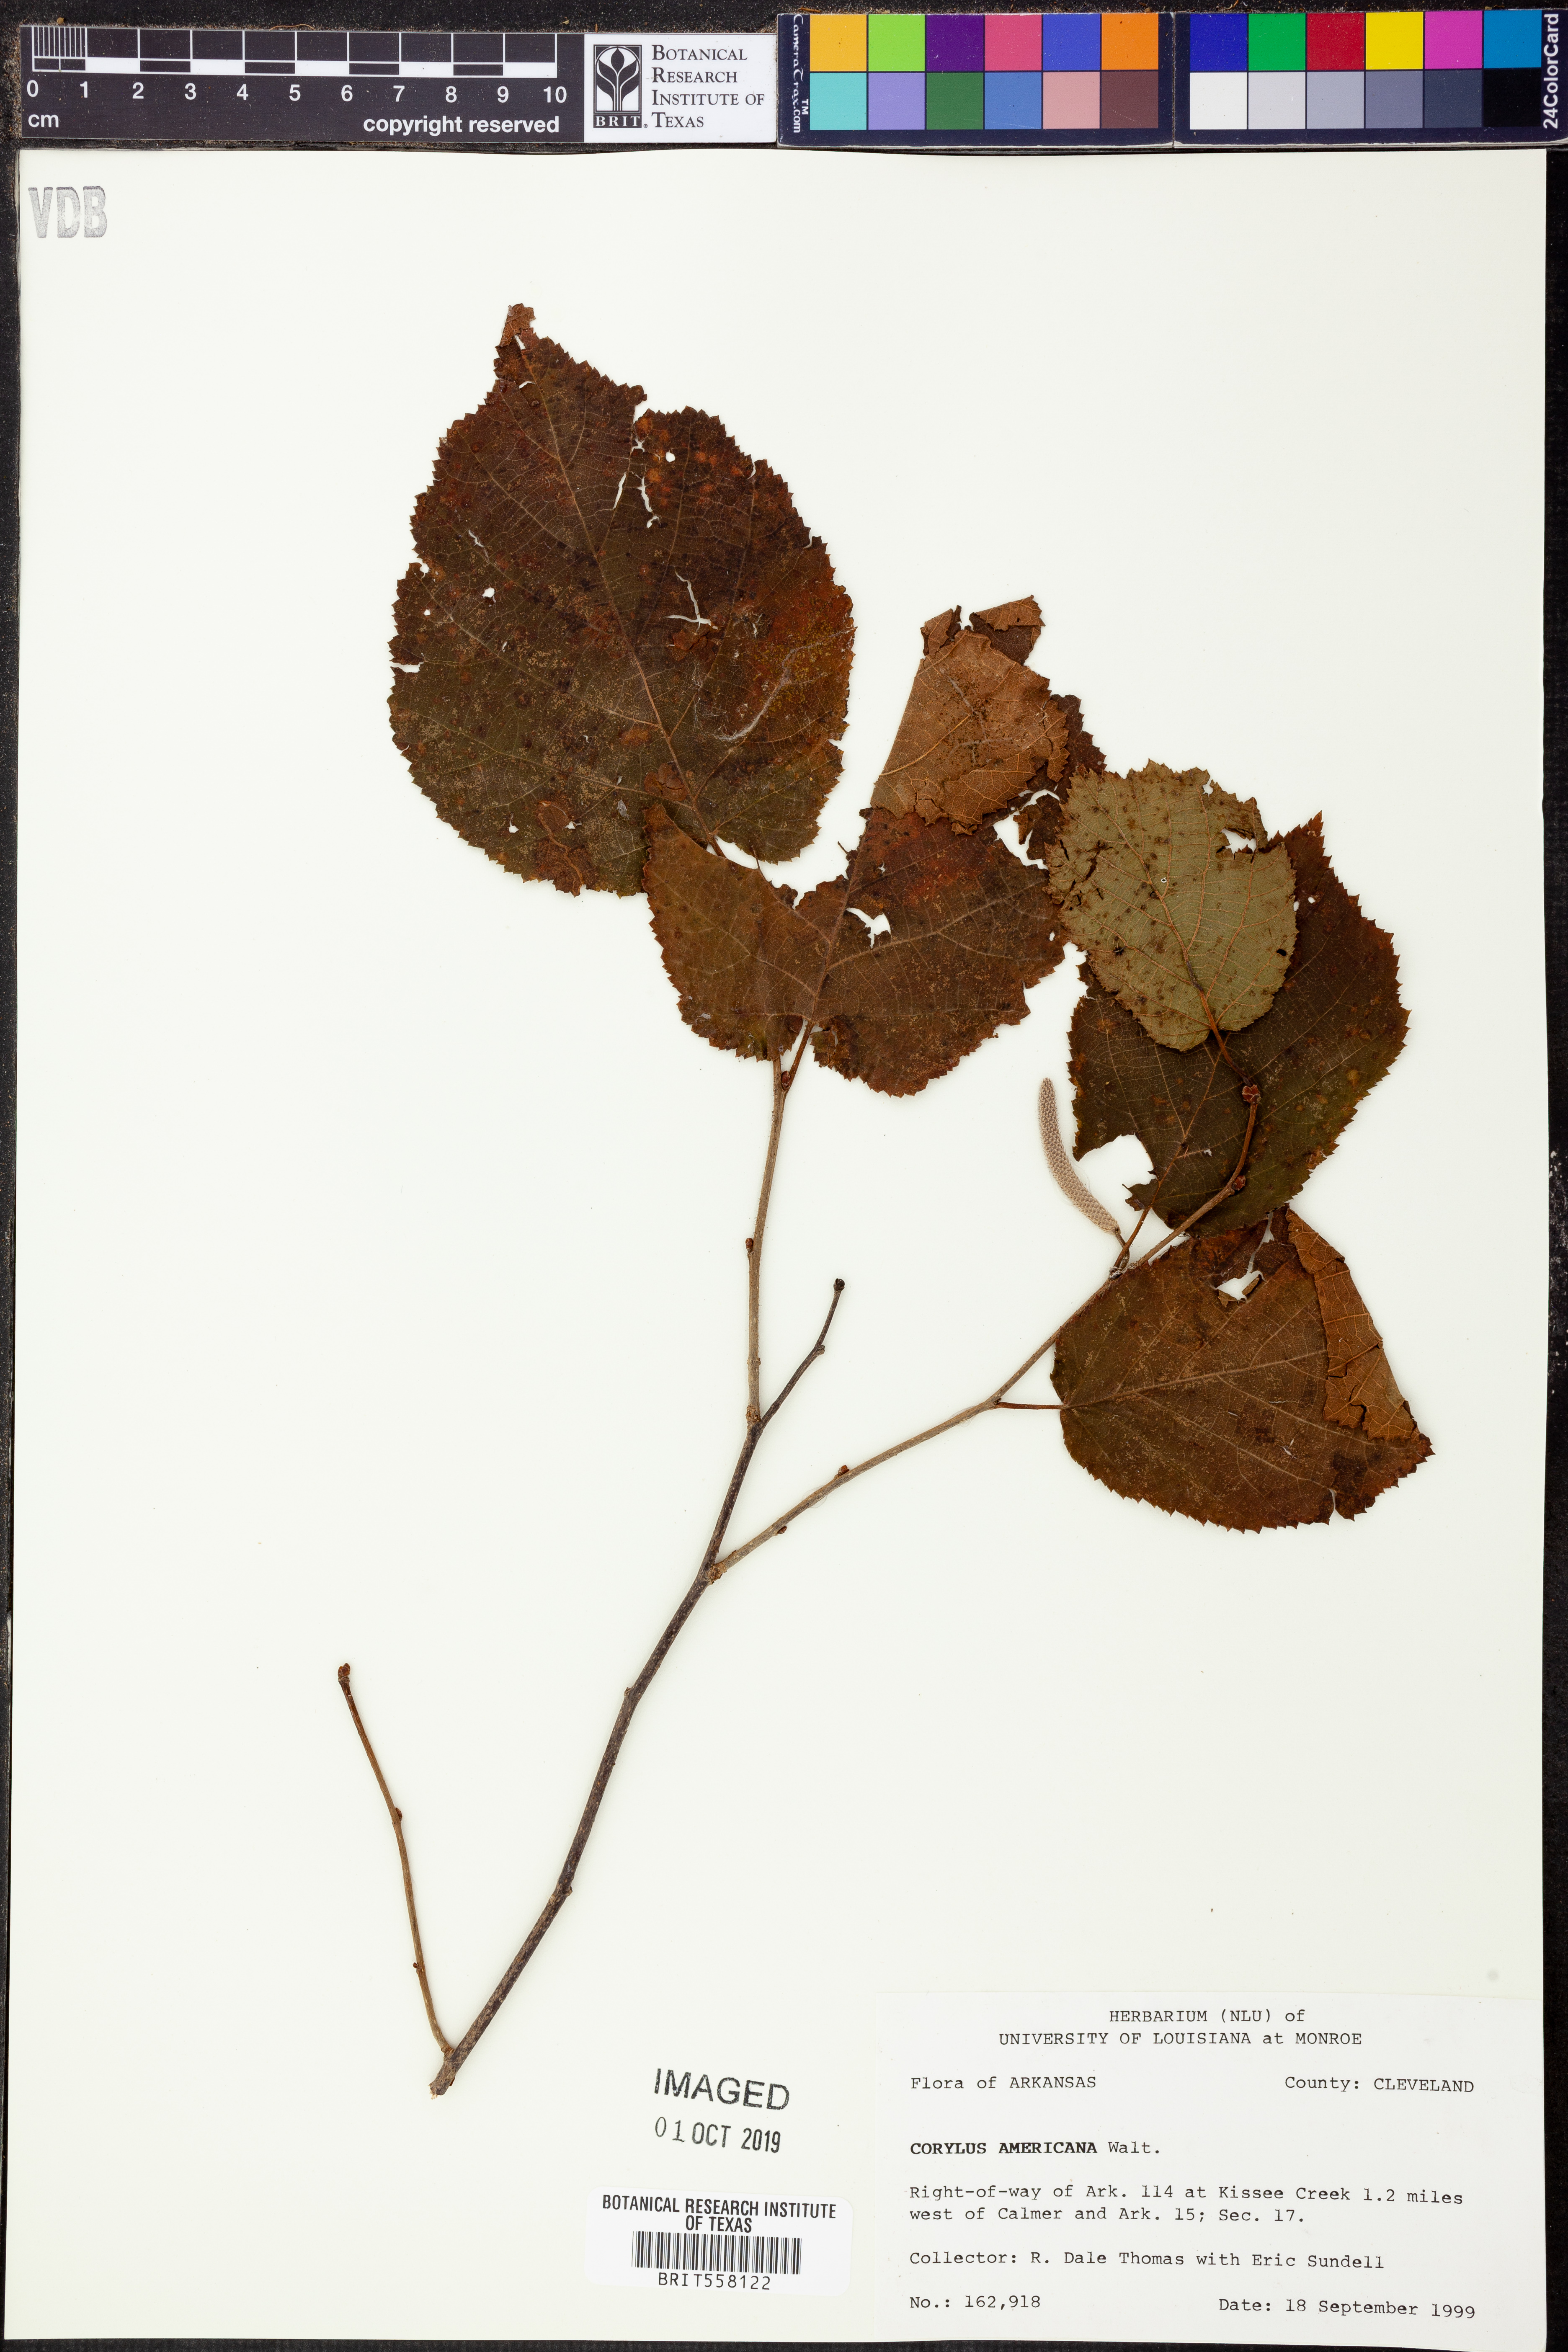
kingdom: Plantae
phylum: Tracheophyta
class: Magnoliopsida
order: Fagales
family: Betulaceae
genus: Corylus
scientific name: Corylus americana
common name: American hazel
